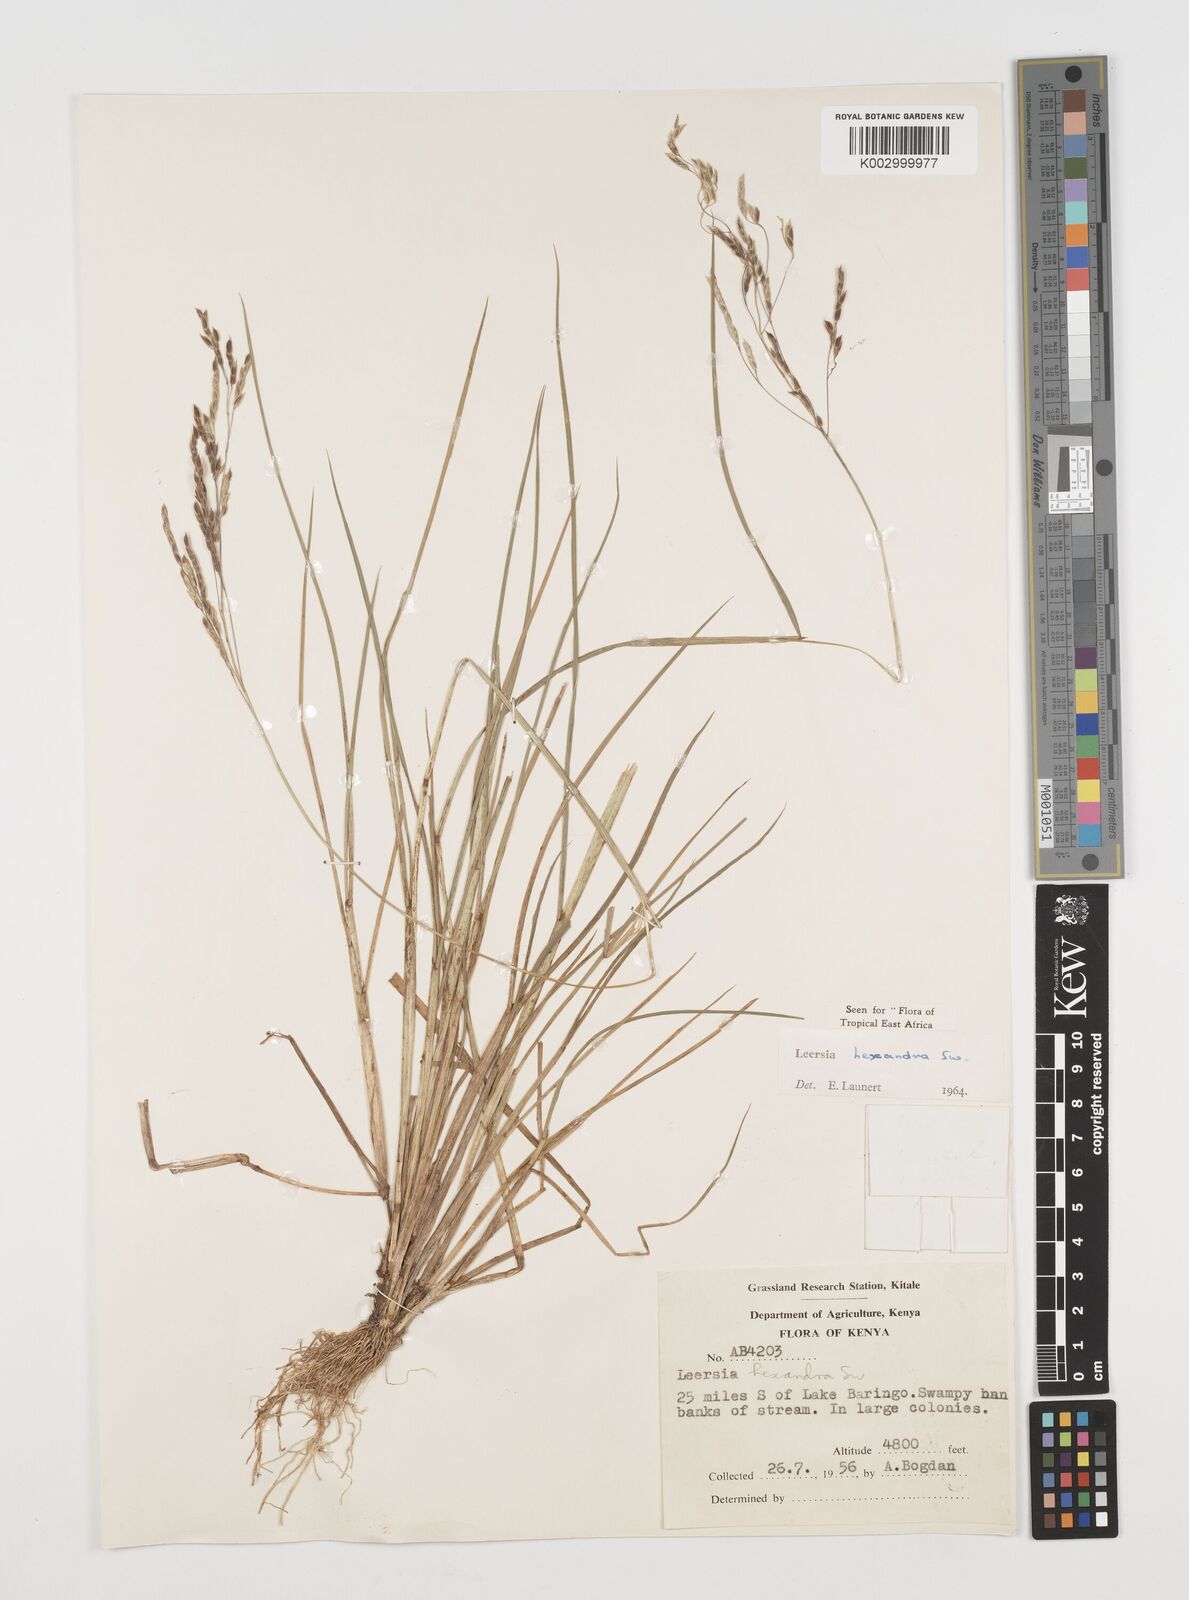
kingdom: Plantae
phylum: Tracheophyta
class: Liliopsida
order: Poales
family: Poaceae
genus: Leersia
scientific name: Leersia hexandra
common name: Southern cut grass
